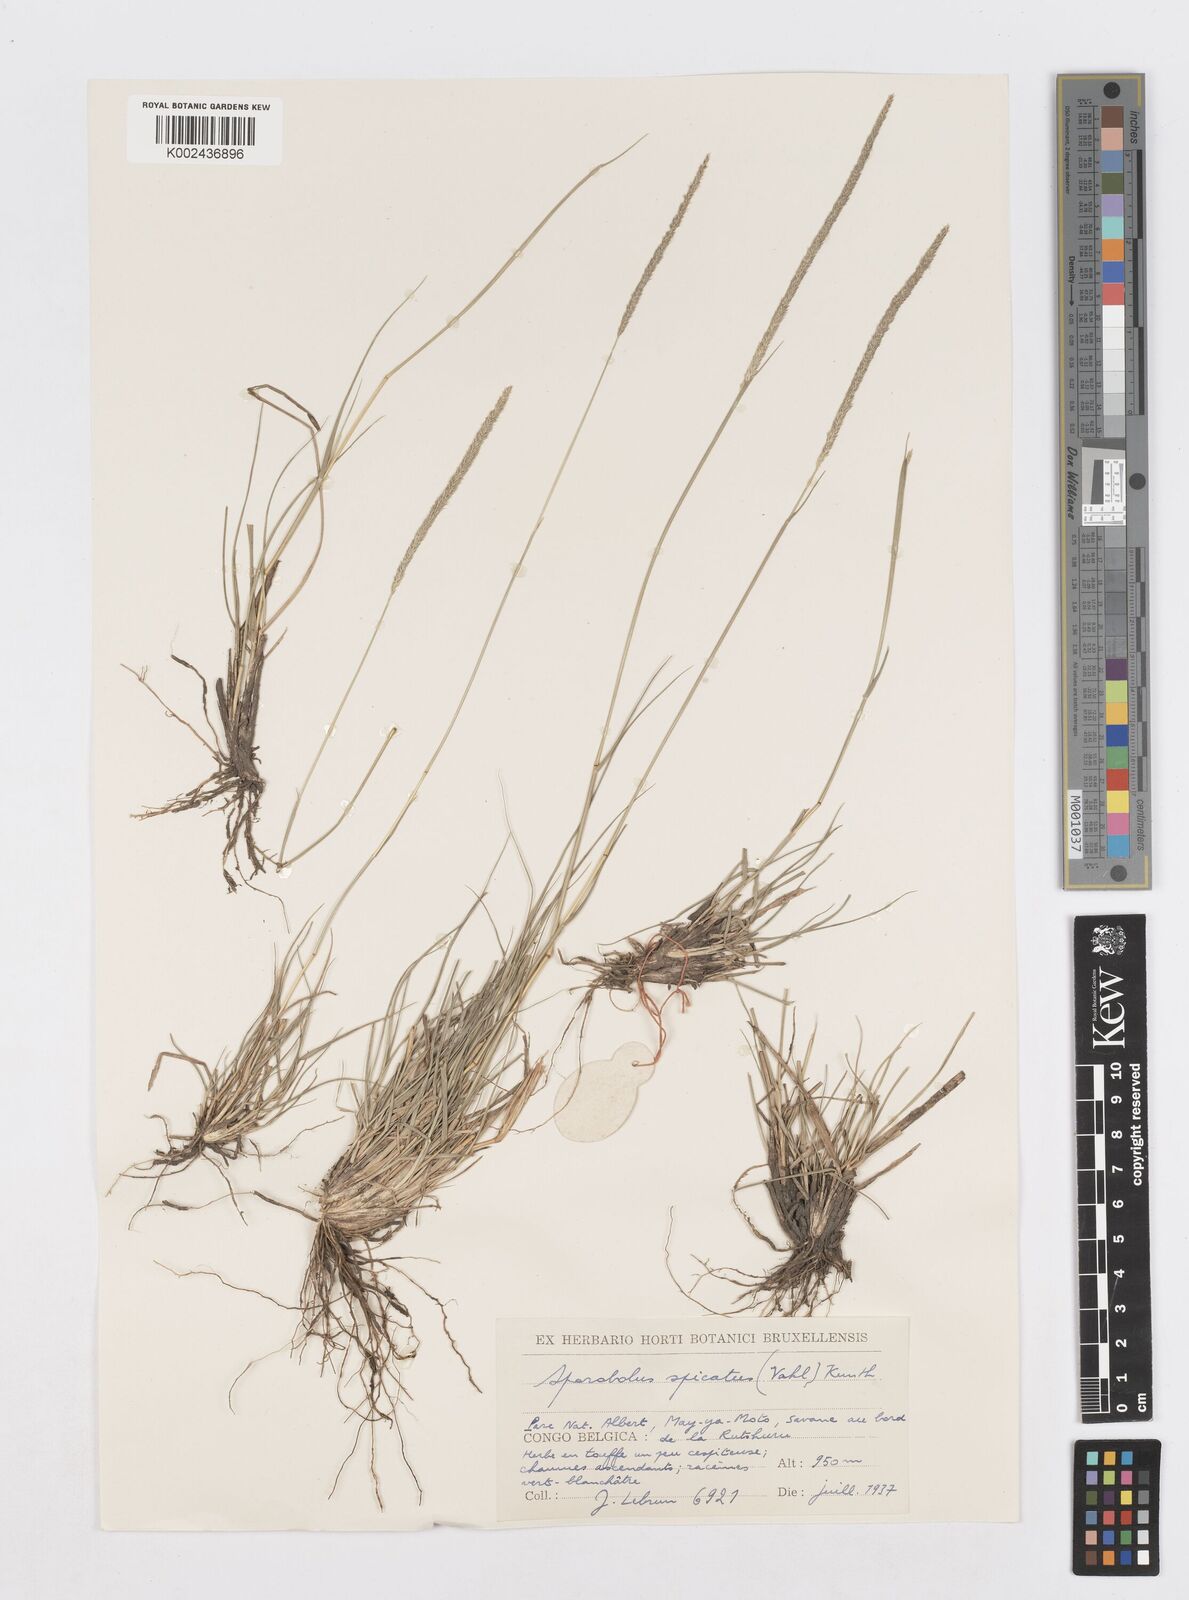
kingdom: Plantae
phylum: Tracheophyta
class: Liliopsida
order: Poales
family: Poaceae
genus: Sporobolus
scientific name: Sporobolus spicatus
